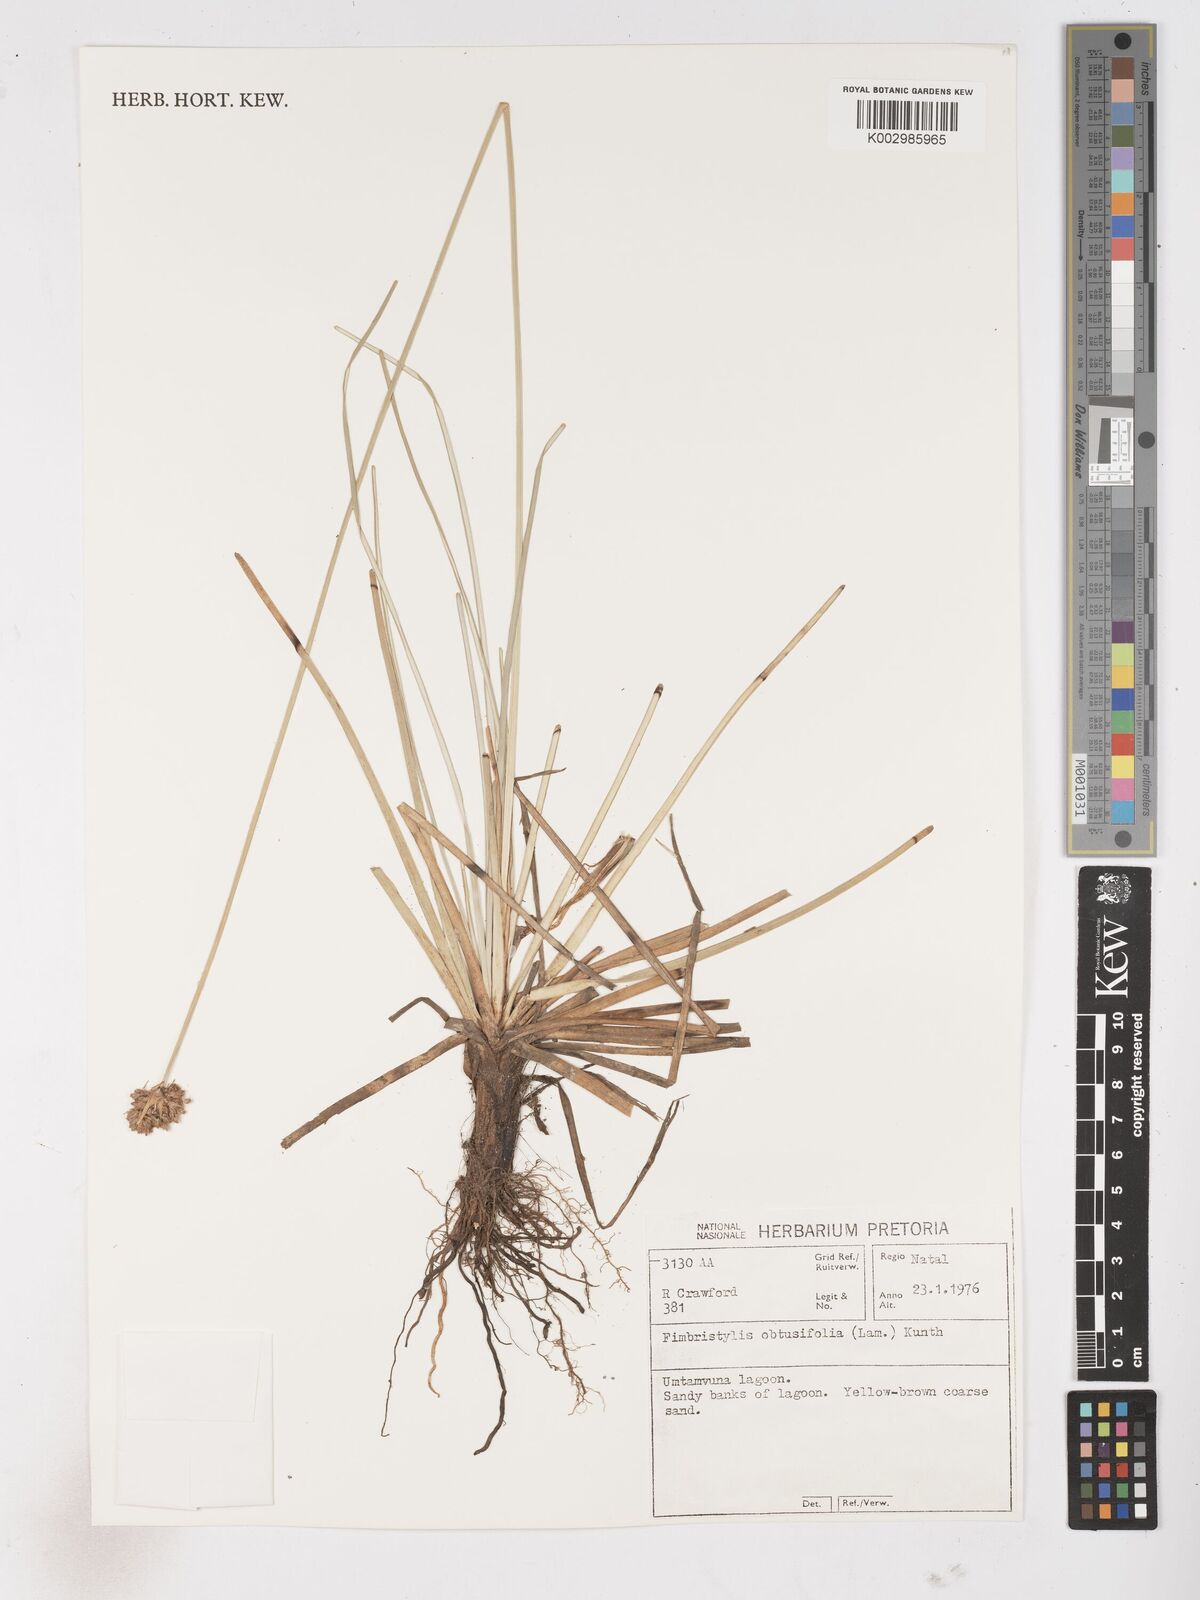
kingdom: Plantae
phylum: Tracheophyta
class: Liliopsida
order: Poales
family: Cyperaceae
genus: Fimbristylis
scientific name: Fimbristylis cymosa
